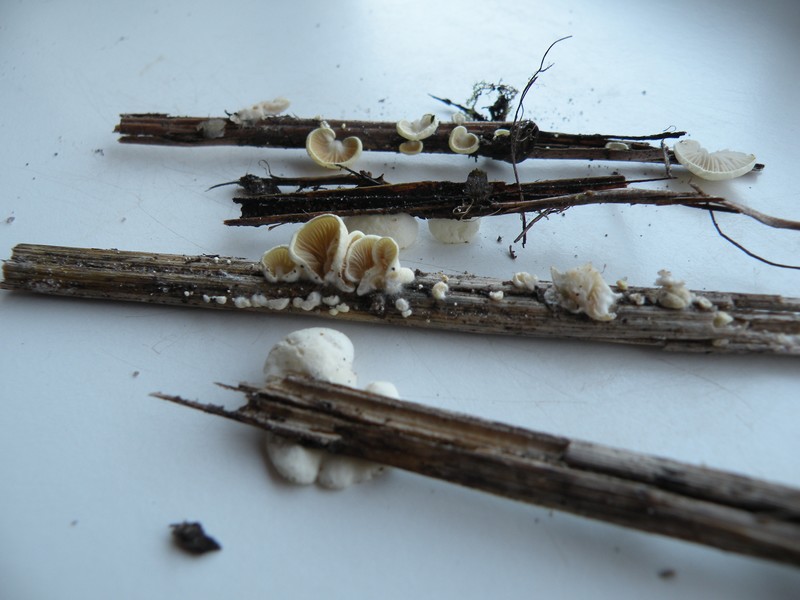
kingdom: Fungi
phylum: Basidiomycota
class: Agaricomycetes
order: Agaricales
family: Crepidotaceae
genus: Crepidotus
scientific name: Crepidotus luteolus
